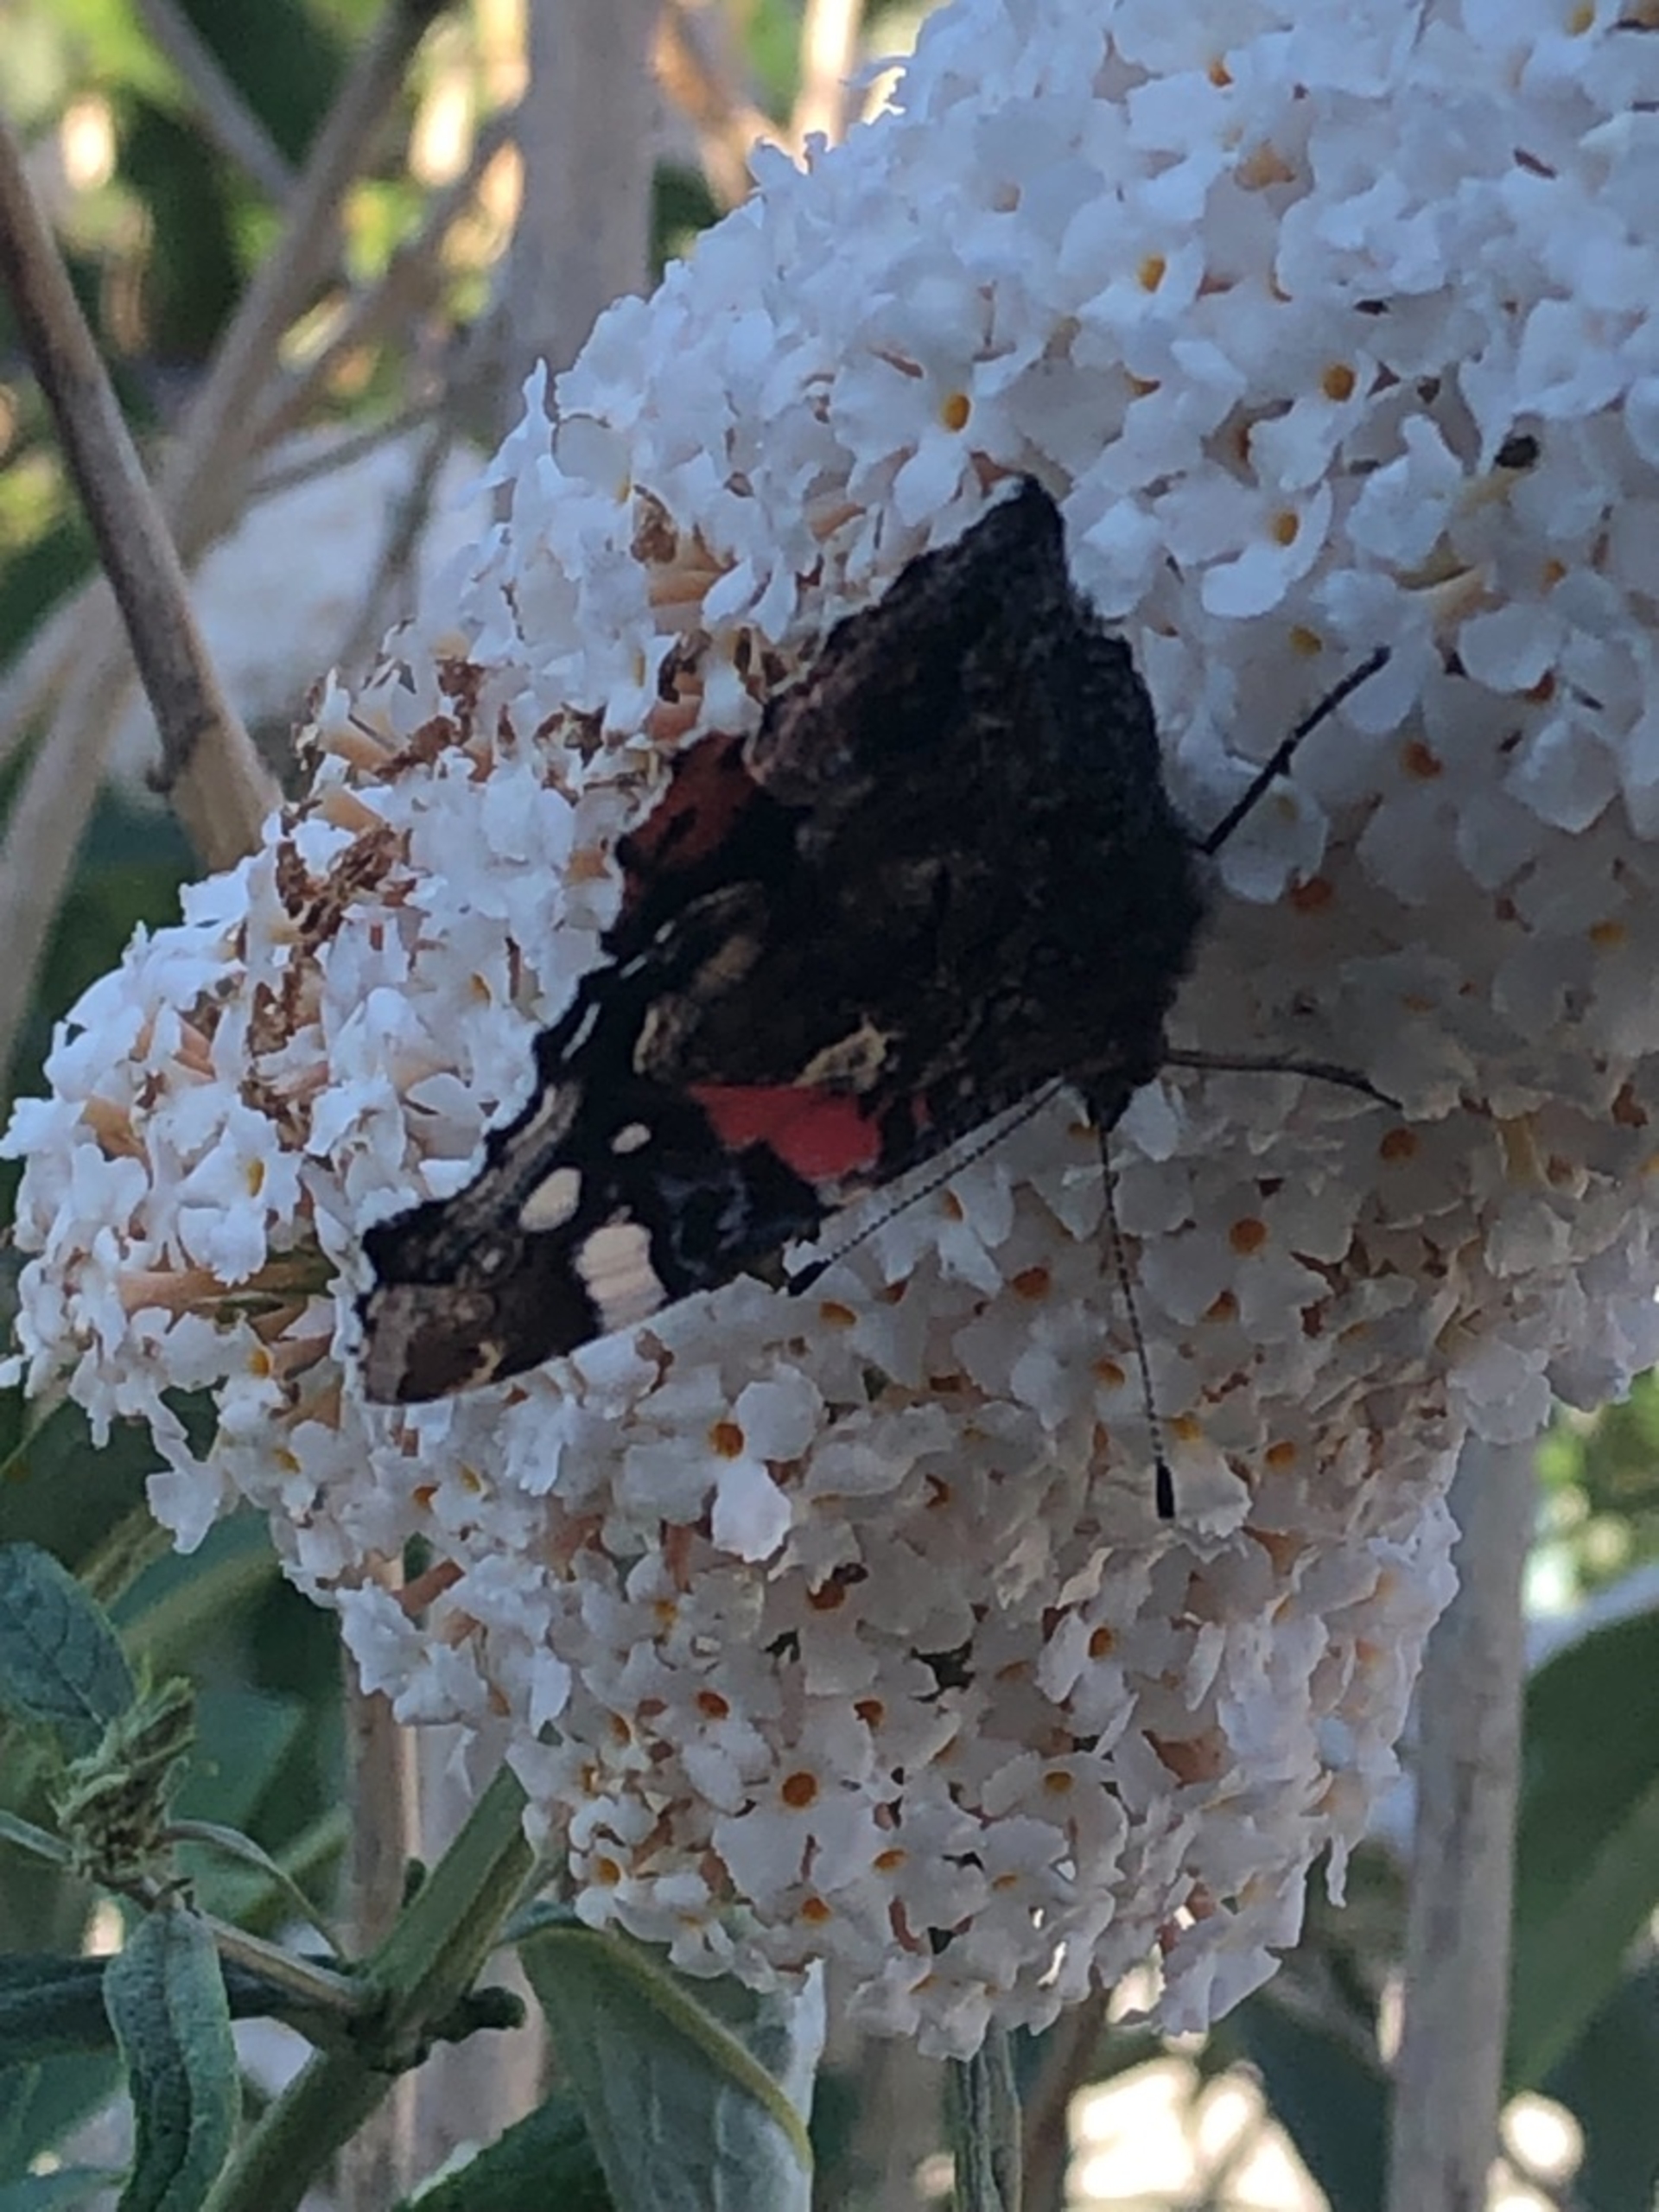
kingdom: Animalia
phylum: Arthropoda
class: Insecta
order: Lepidoptera
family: Nymphalidae
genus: Vanessa
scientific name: Vanessa atalanta
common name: Admiral
